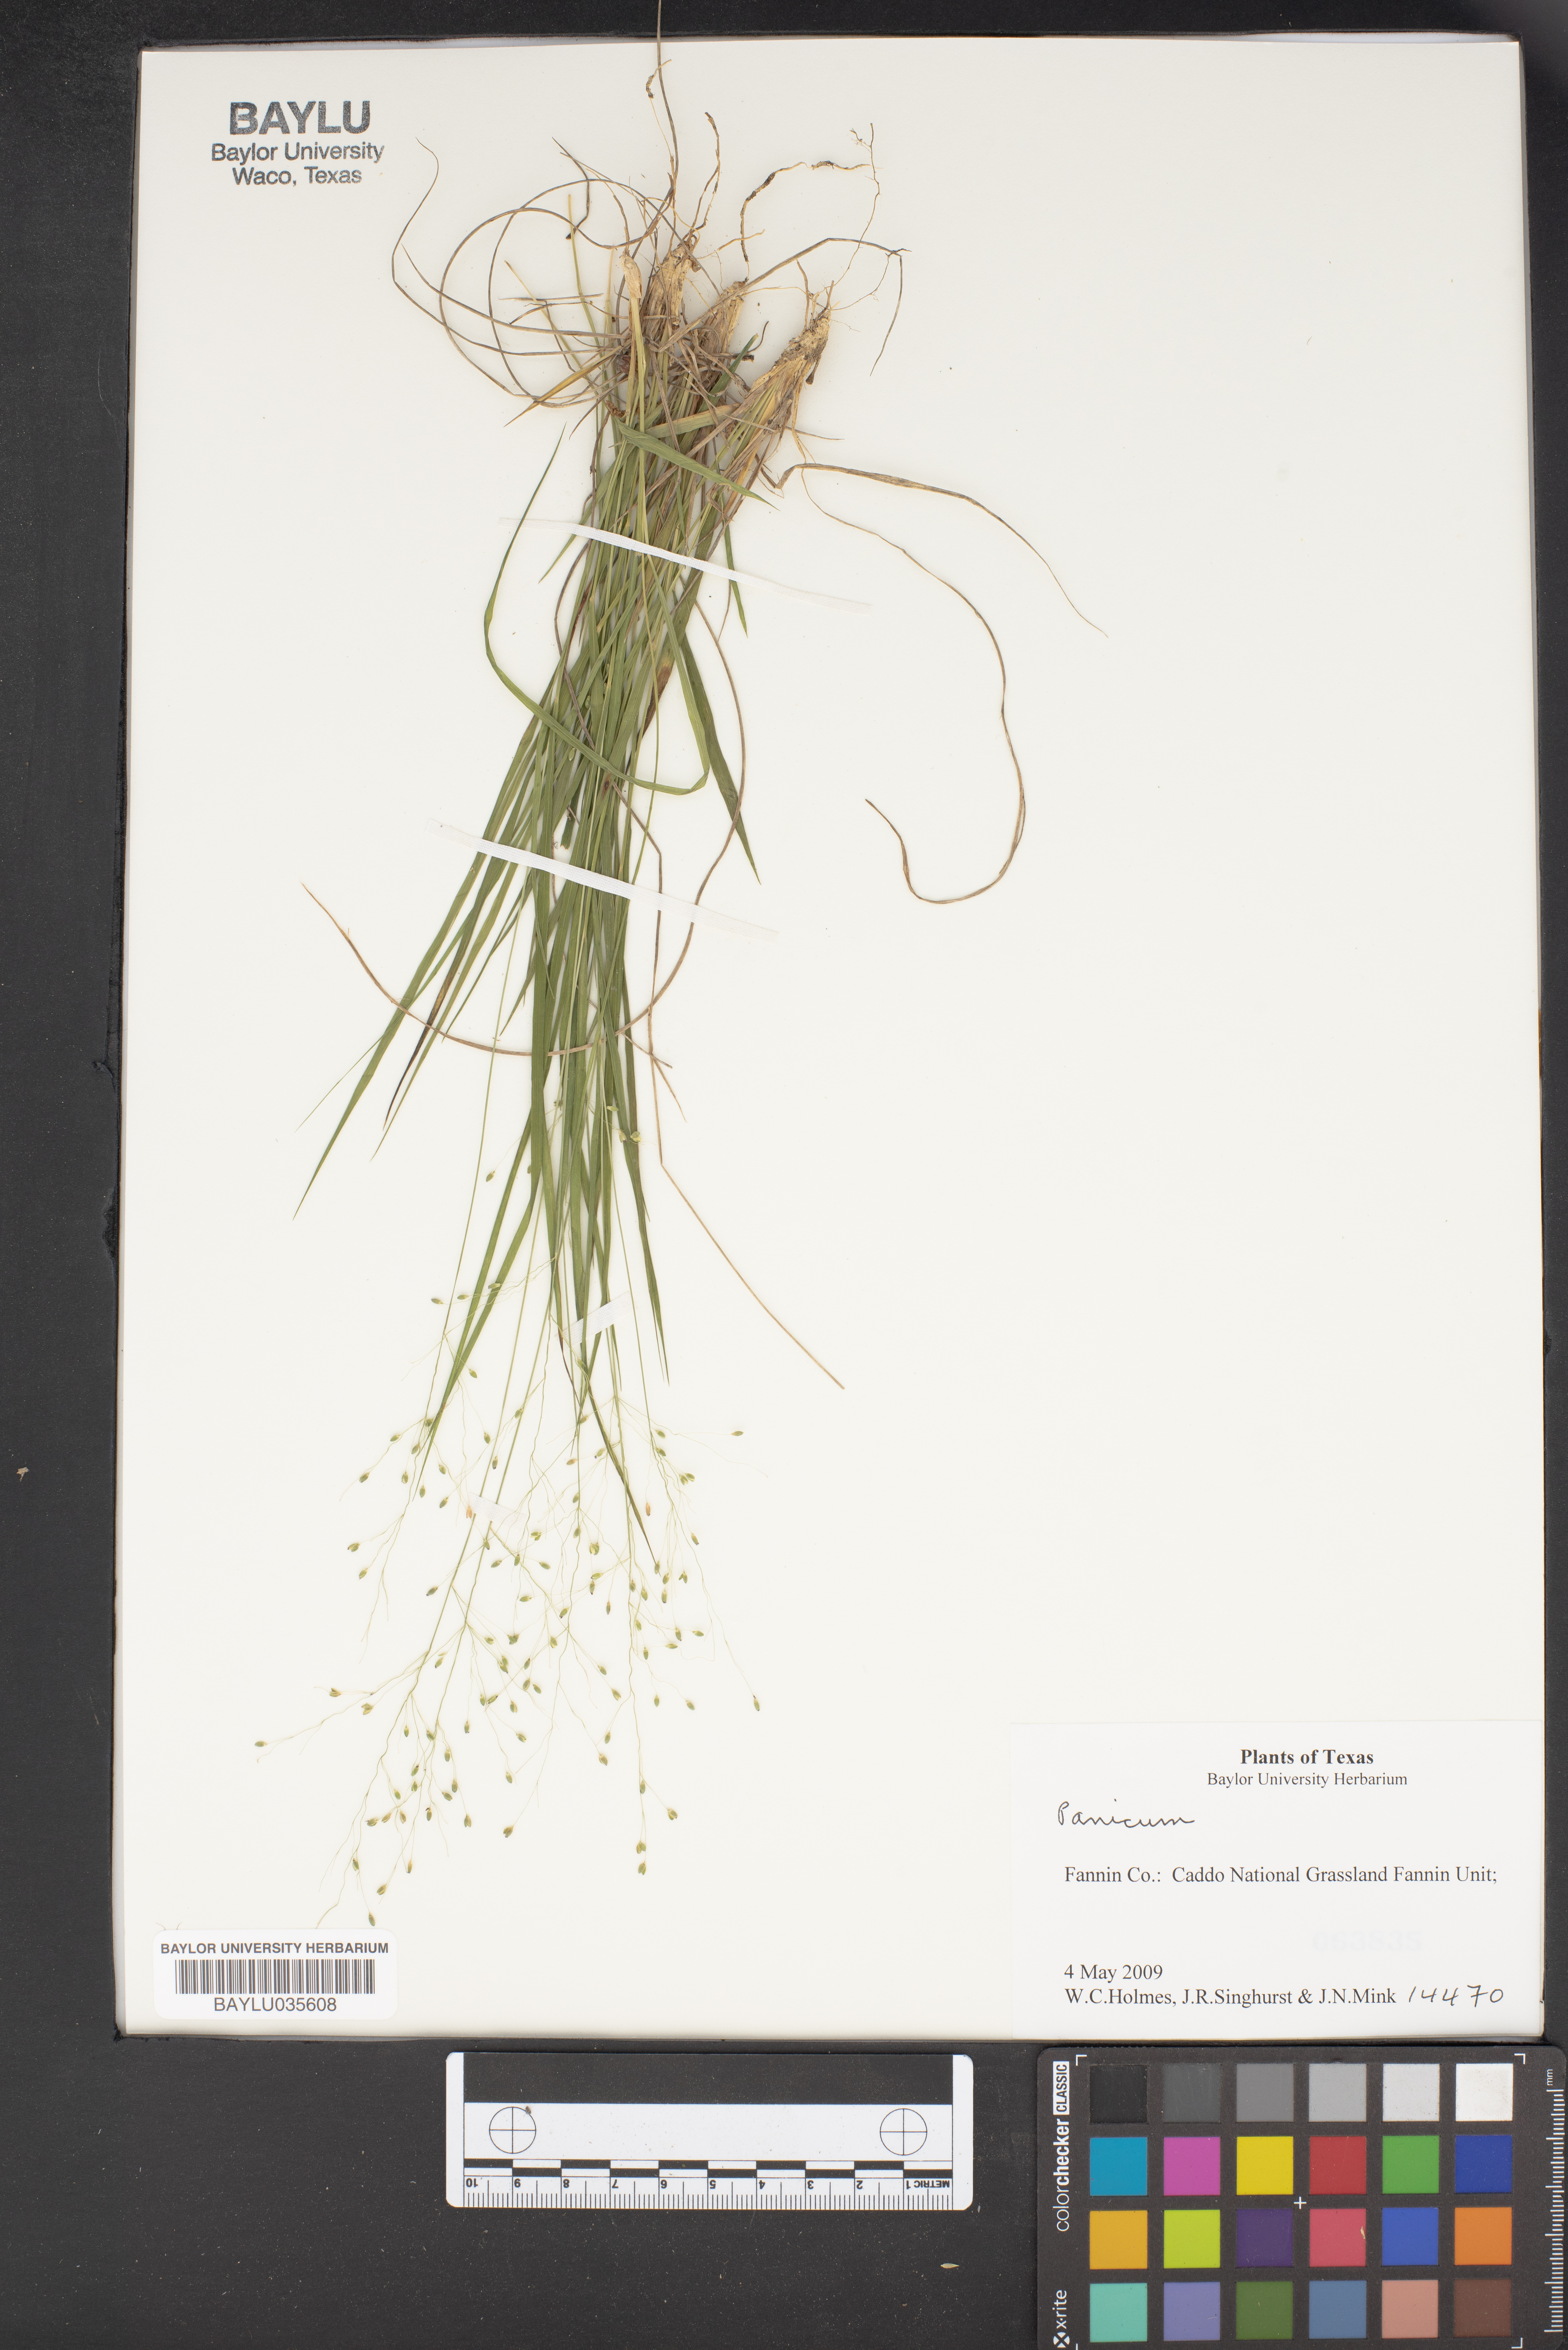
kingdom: Plantae
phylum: Tracheophyta
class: Liliopsida
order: Poales
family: Poaceae
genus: Panicum
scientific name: Panicum
